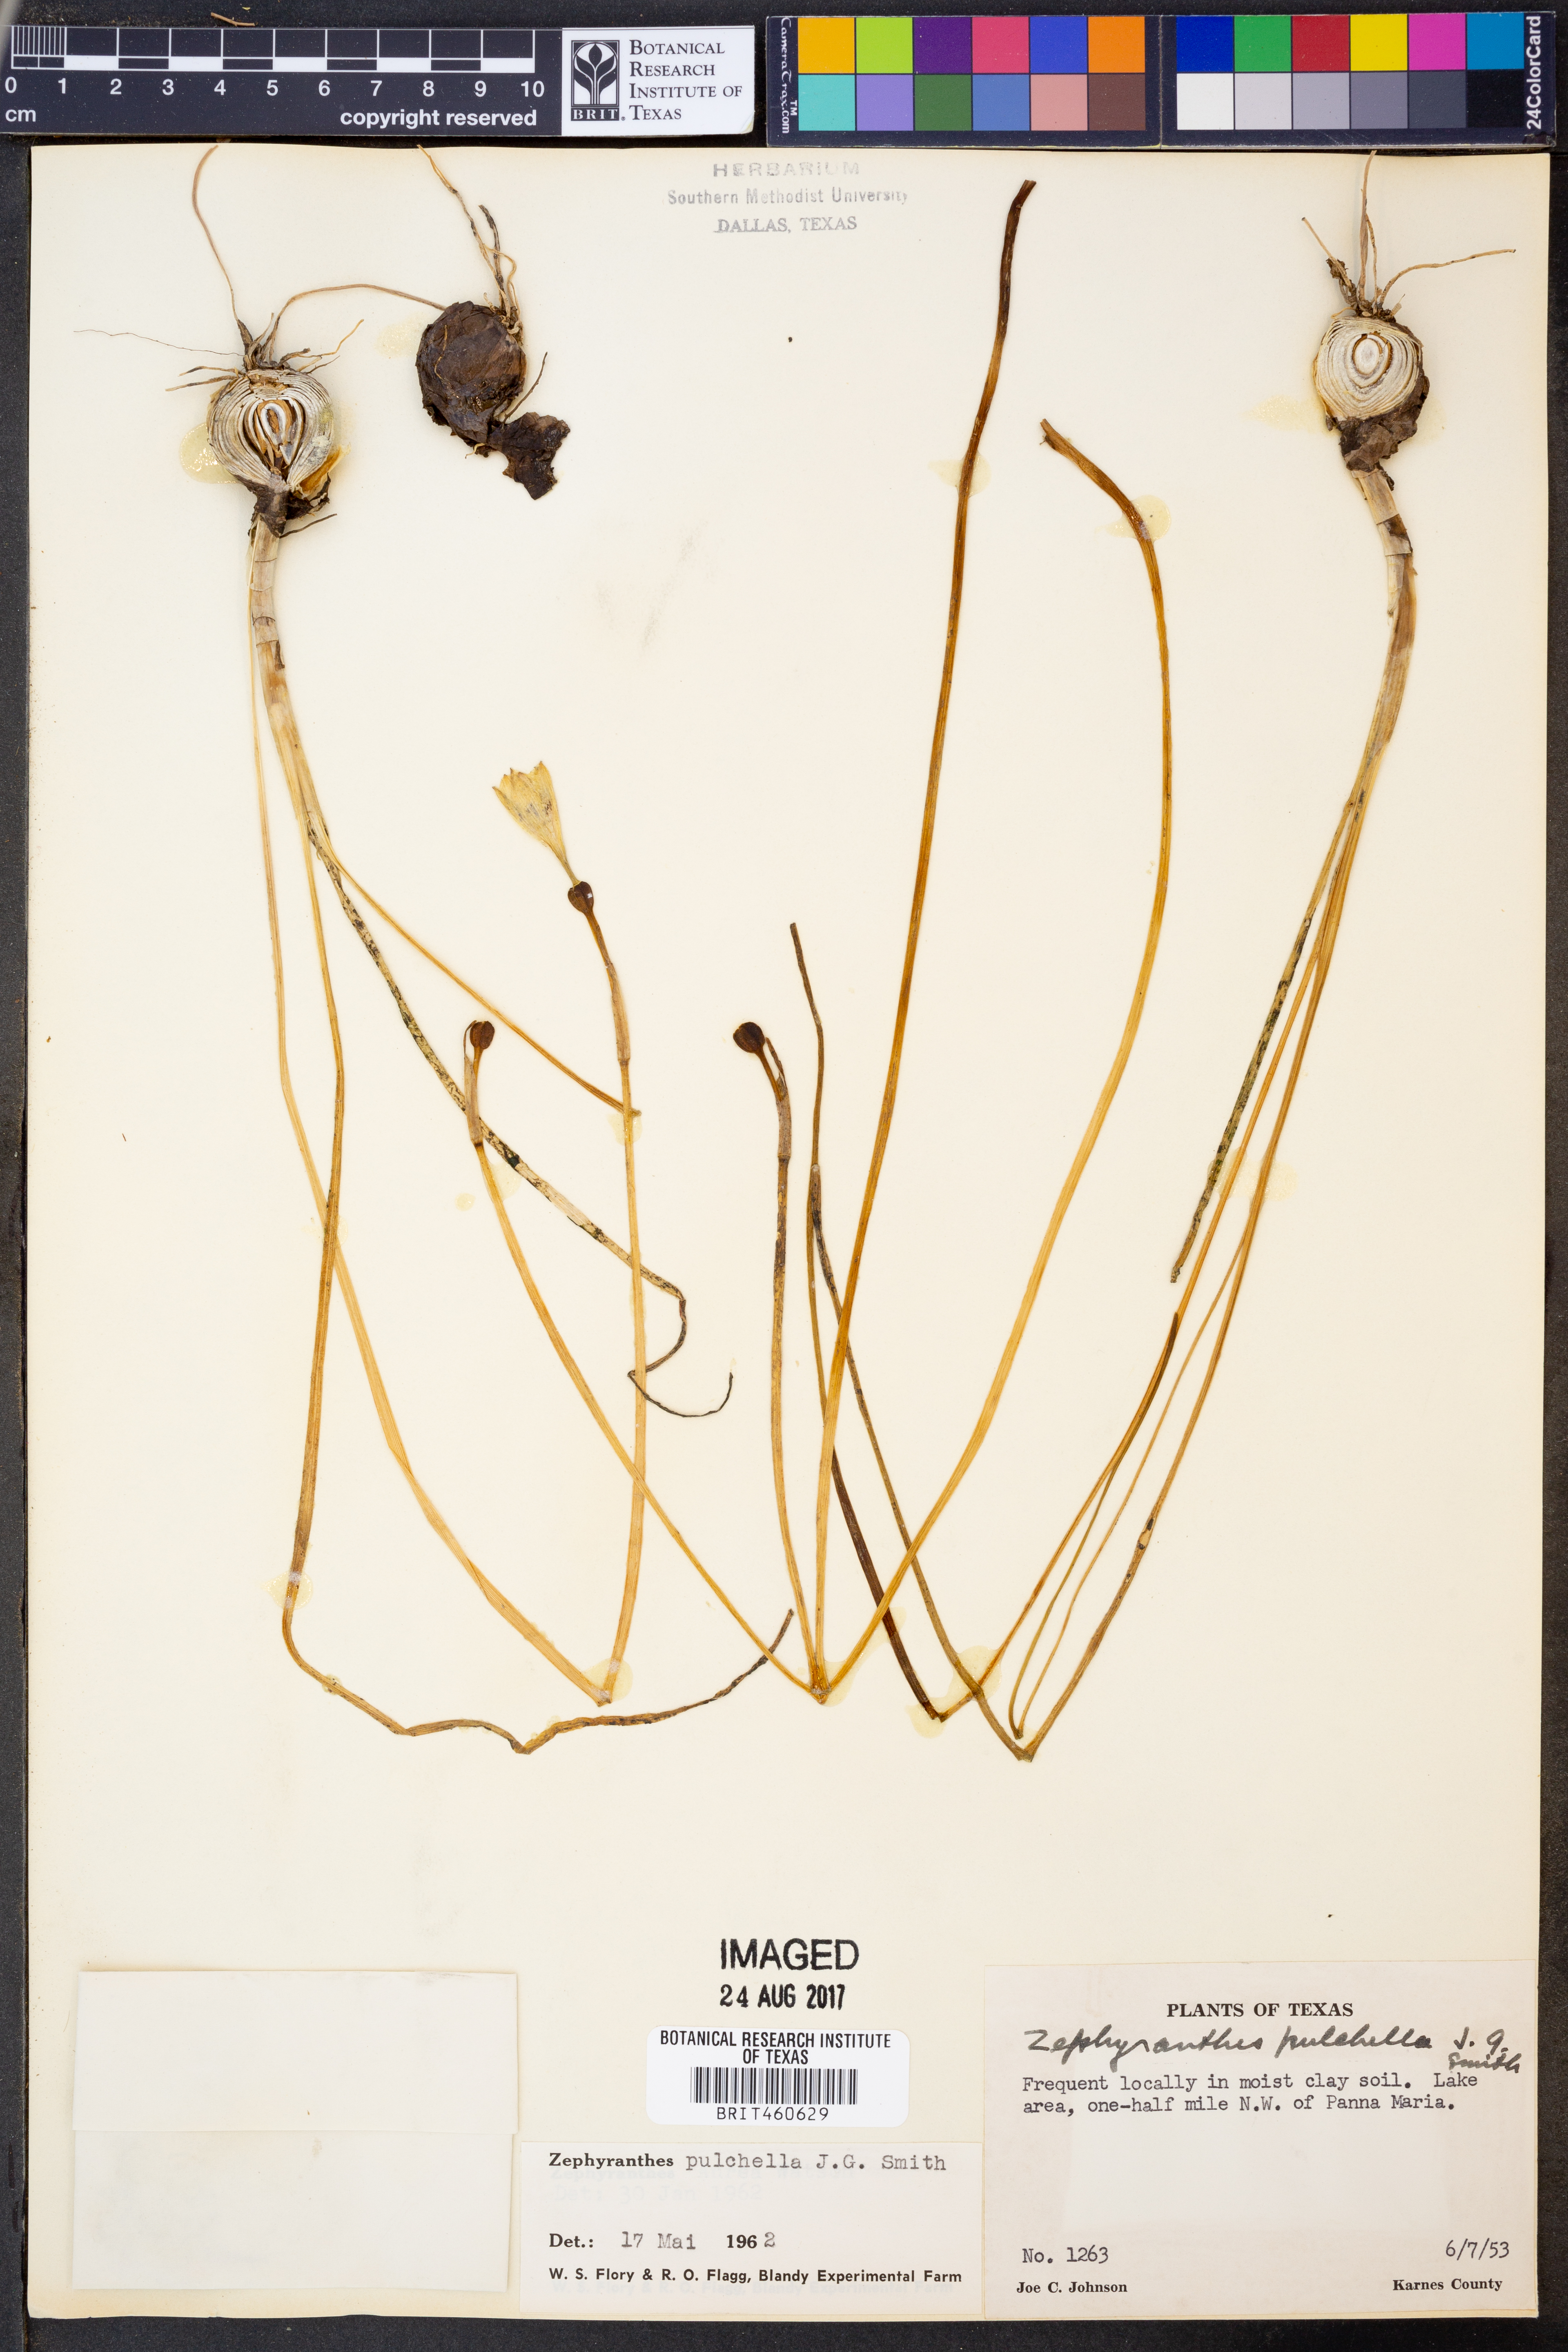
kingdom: Plantae
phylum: Tracheophyta
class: Liliopsida
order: Asparagales
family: Amaryllidaceae
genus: Zephyranthes
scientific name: Zephyranthes pulchella
